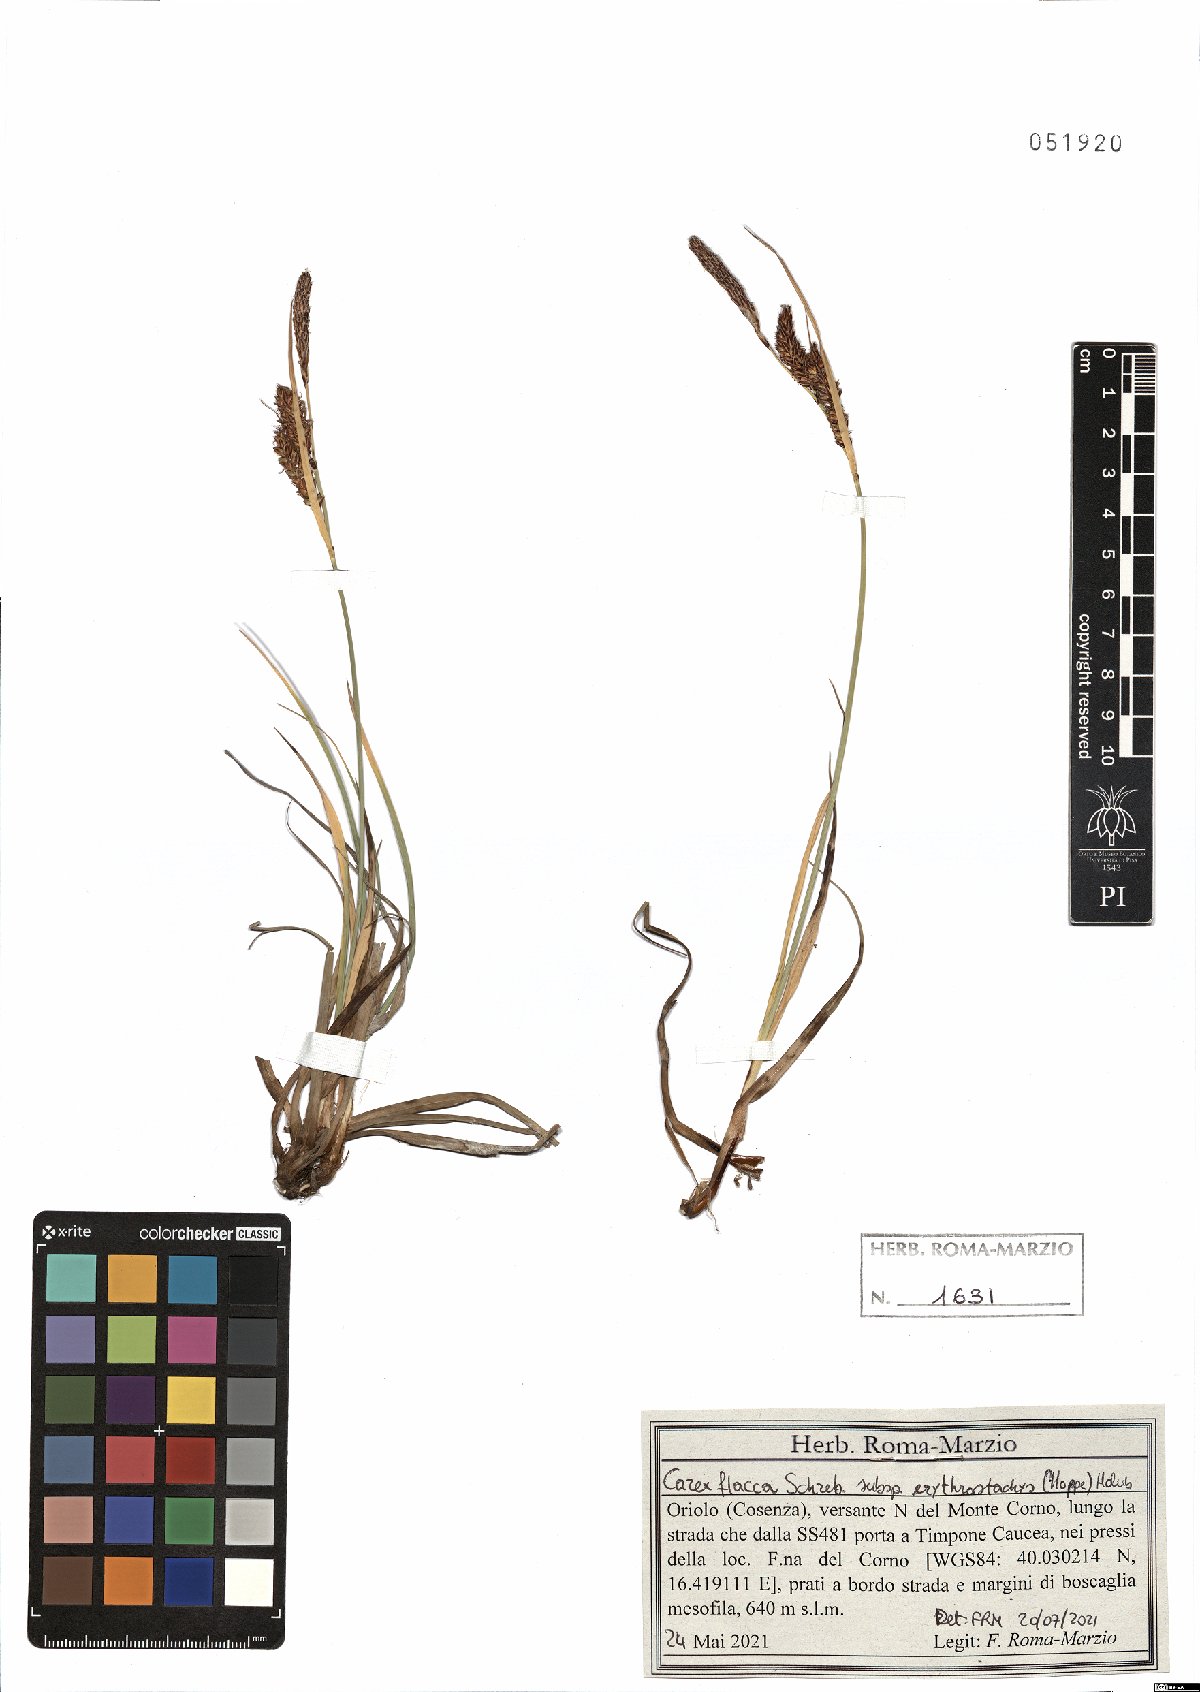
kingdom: Plantae
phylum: Tracheophyta
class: Liliopsida
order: Poales
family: Cyperaceae
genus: Carex
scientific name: Carex flacca
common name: Glaucous sedge
